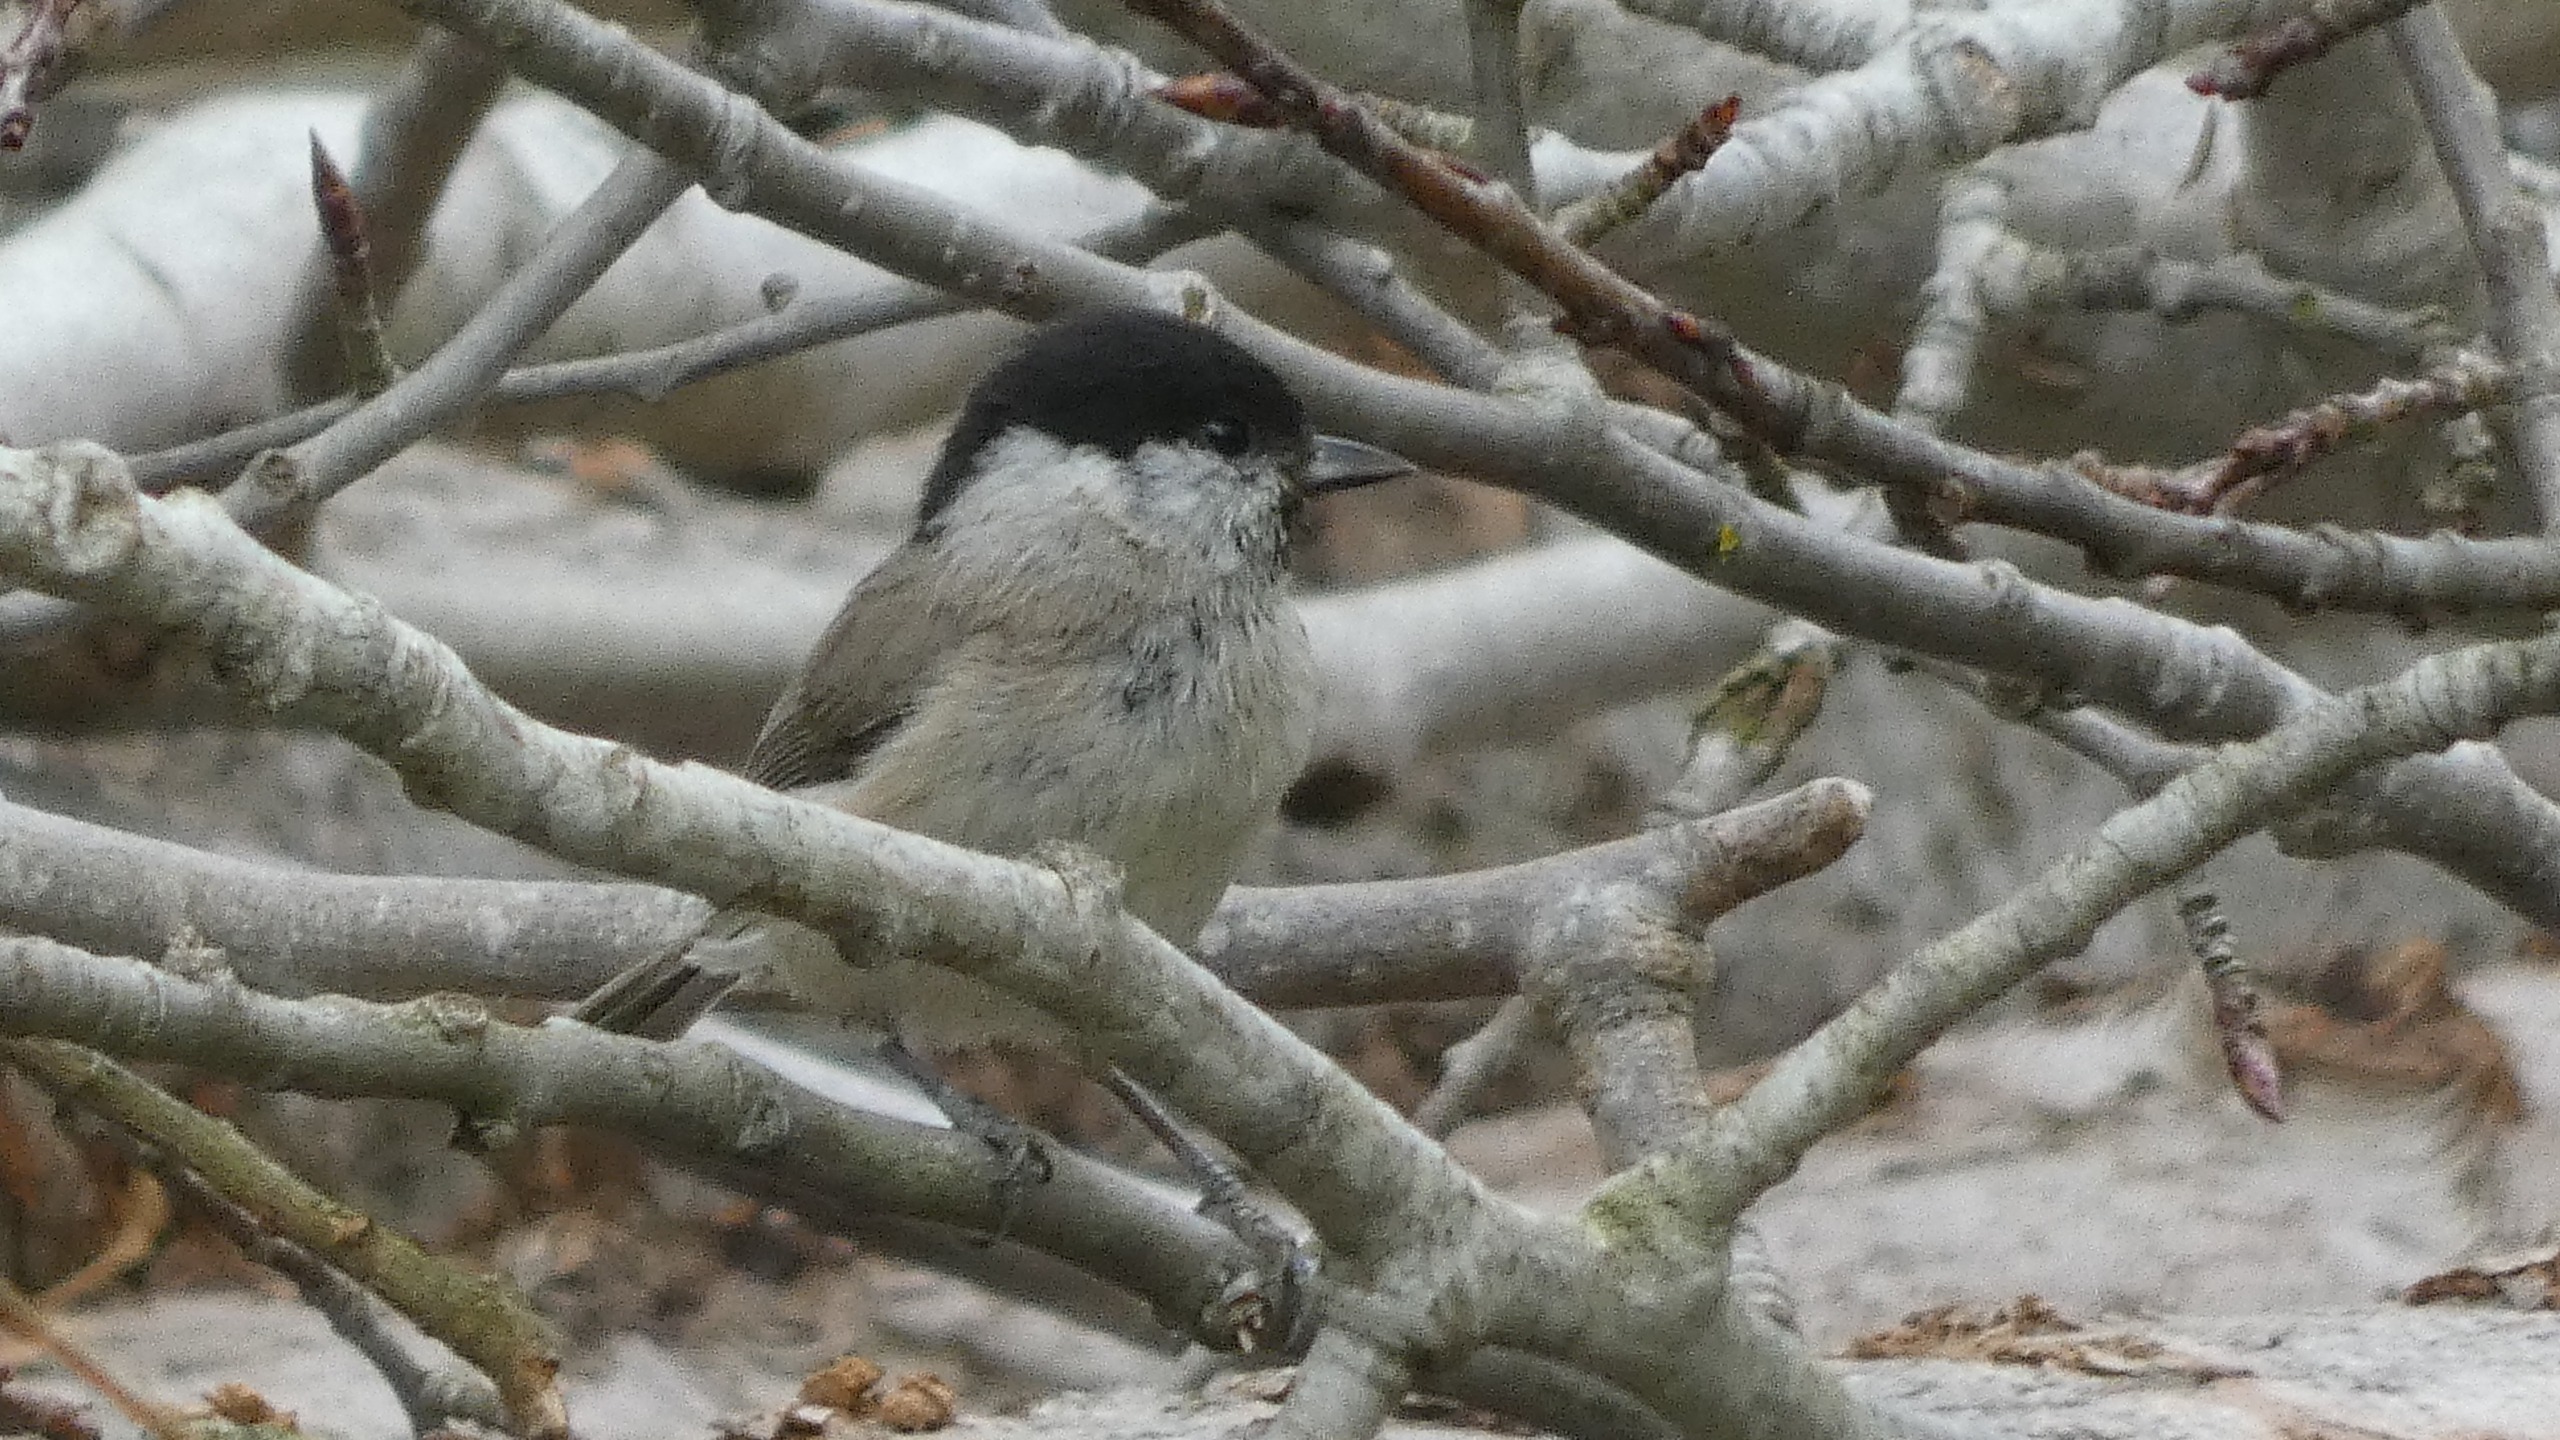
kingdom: Animalia
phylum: Chordata
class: Aves
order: Passeriformes
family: Paridae
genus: Poecile
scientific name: Poecile palustris
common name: Sumpmejse
